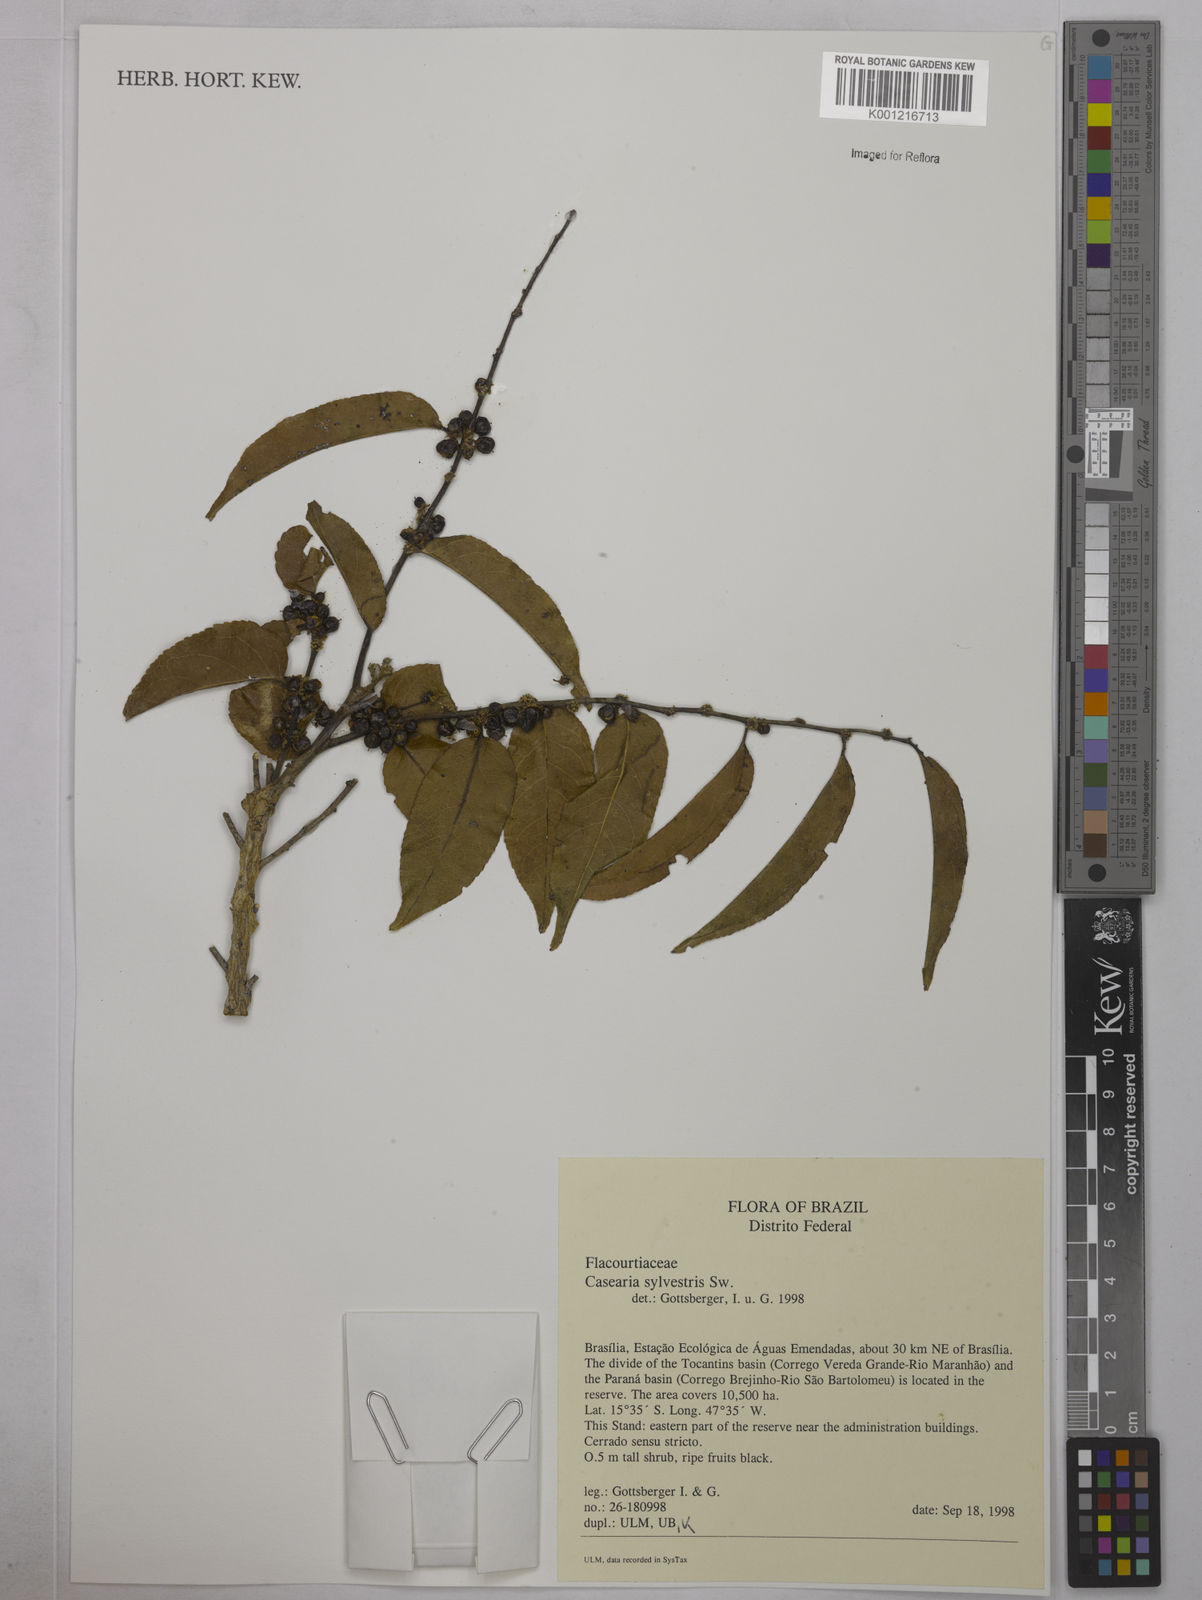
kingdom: Plantae
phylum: Tracheophyta
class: Magnoliopsida
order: Malpighiales
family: Salicaceae
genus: Casearia
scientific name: Casearia sylvestris
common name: Wild sage
